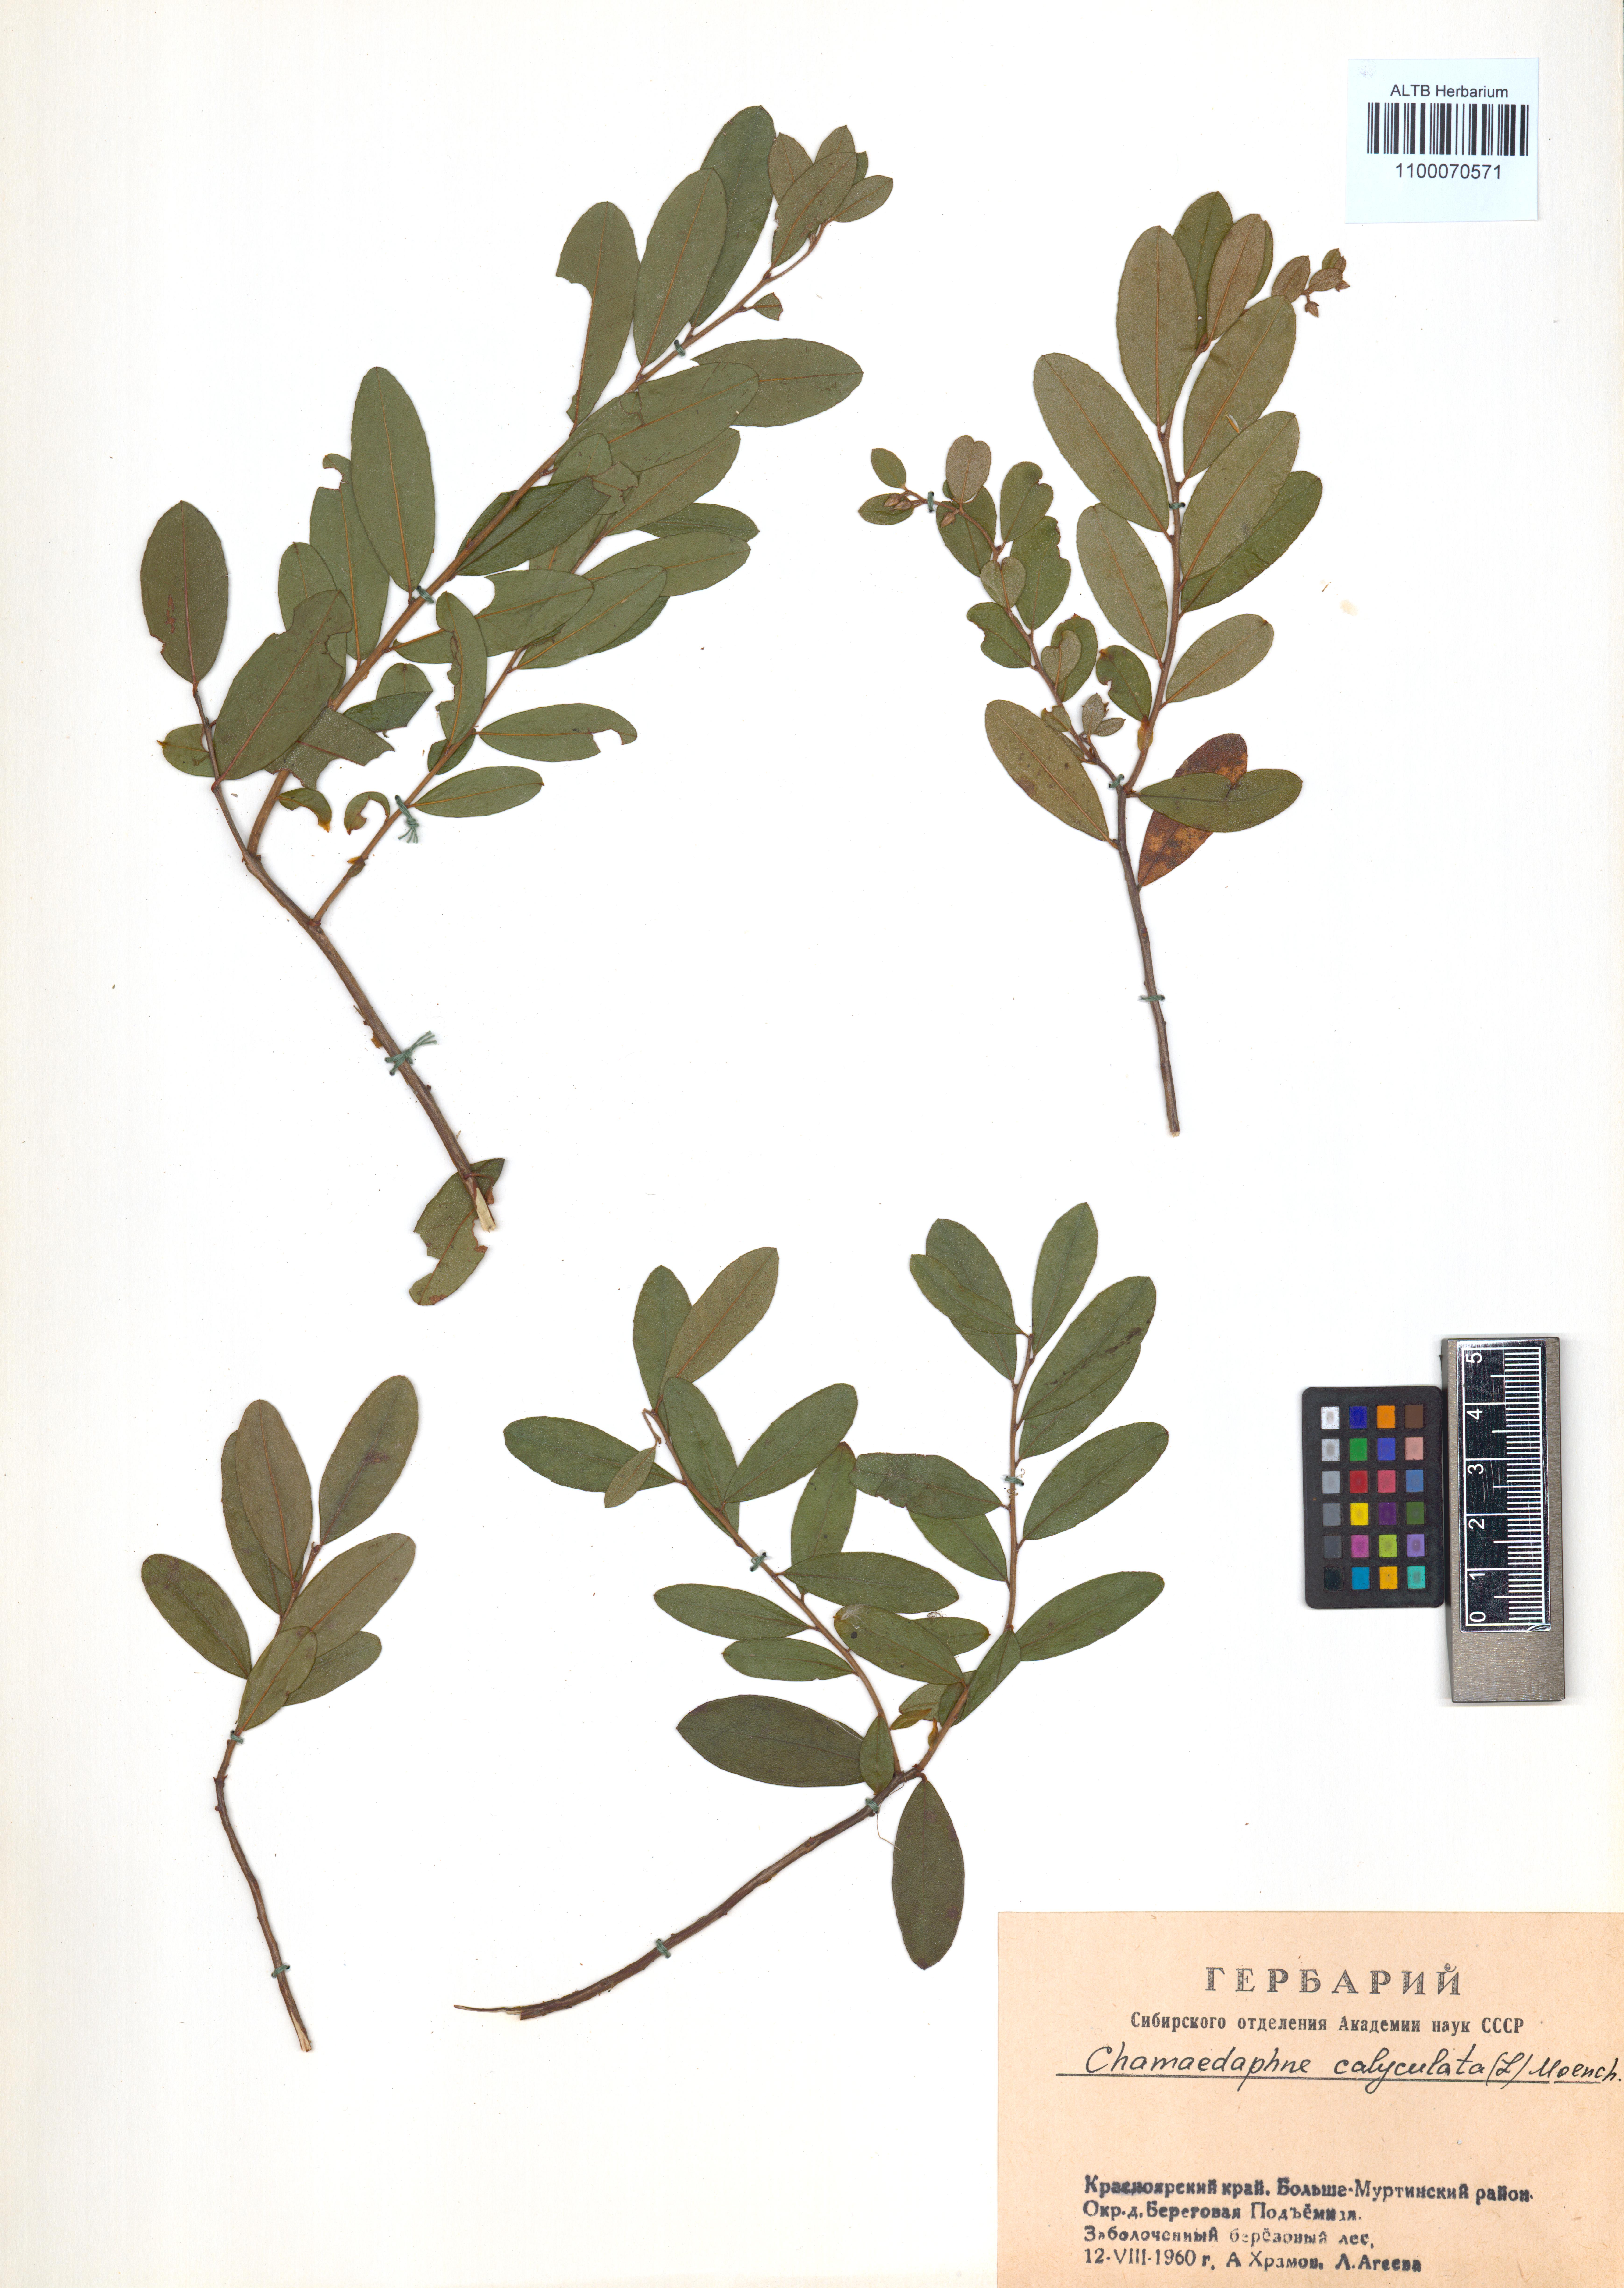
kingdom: Plantae
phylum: Tracheophyta
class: Magnoliopsida
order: Ericales
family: Ericaceae
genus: Chamaedaphne
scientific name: Chamaedaphne calyculata
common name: Leatherleaf
